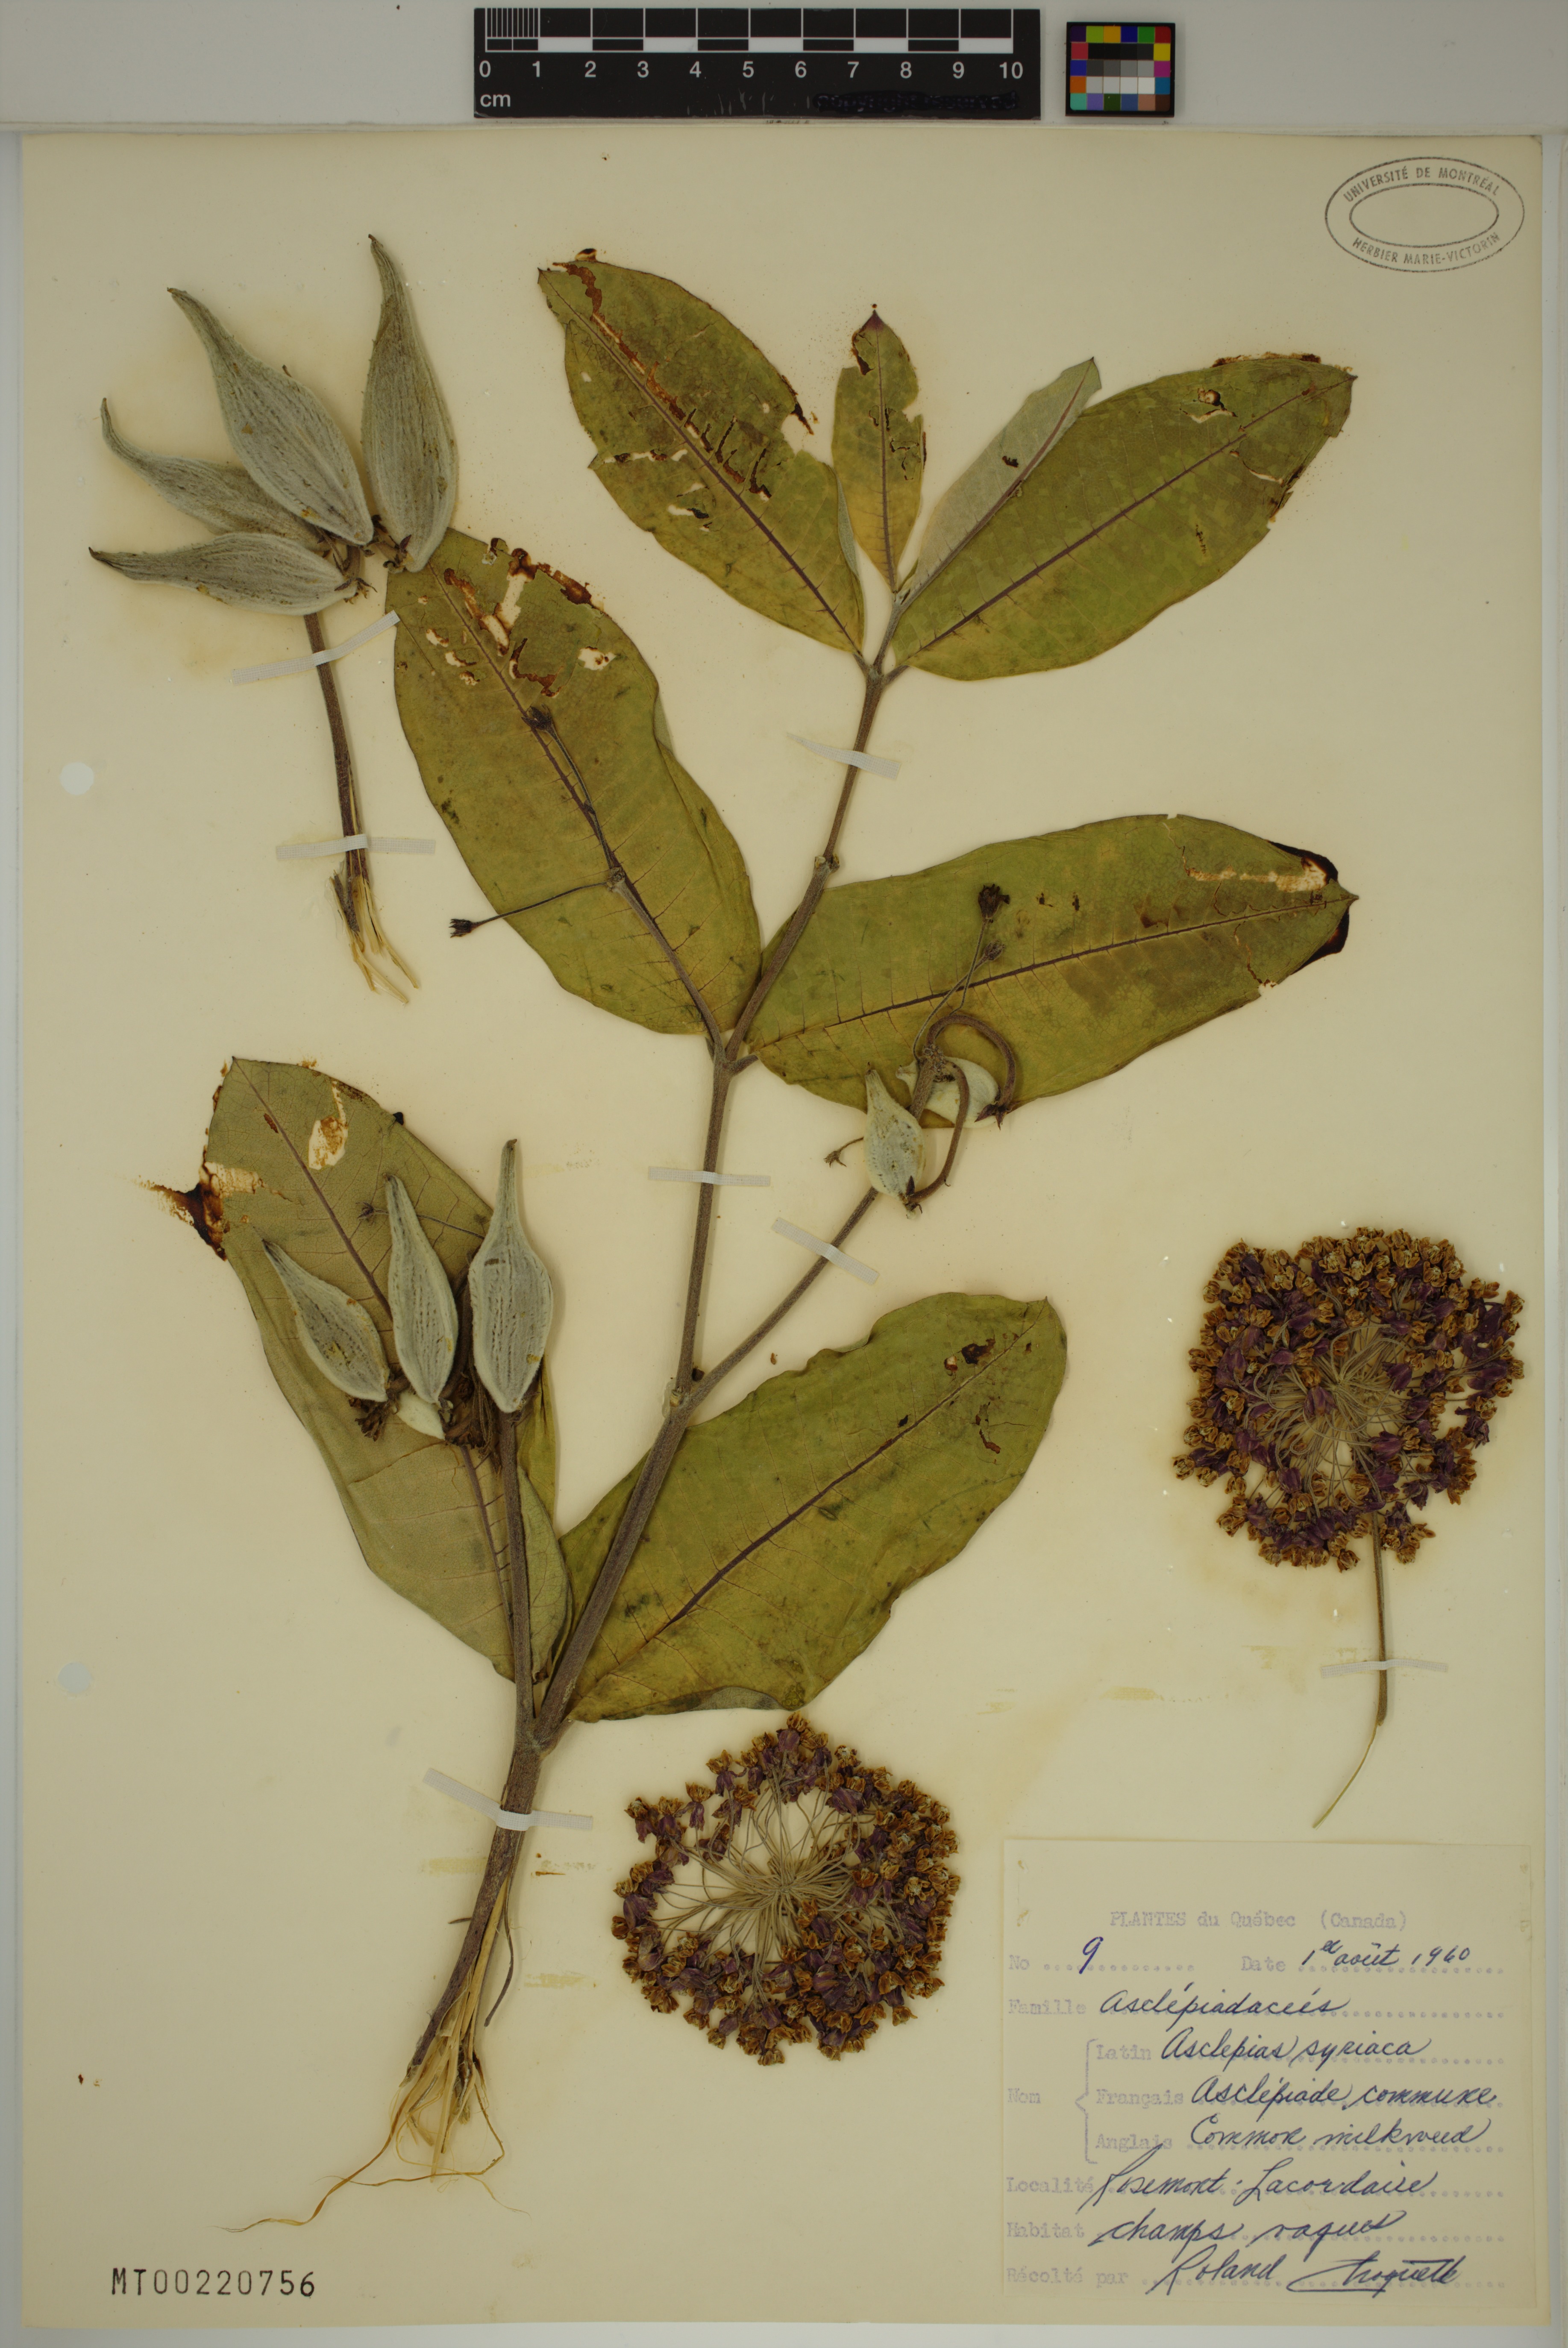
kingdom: Plantae
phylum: Tracheophyta
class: Magnoliopsida
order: Gentianales
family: Apocynaceae
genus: Asclepias
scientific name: Asclepias syriaca
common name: Common milkweed
